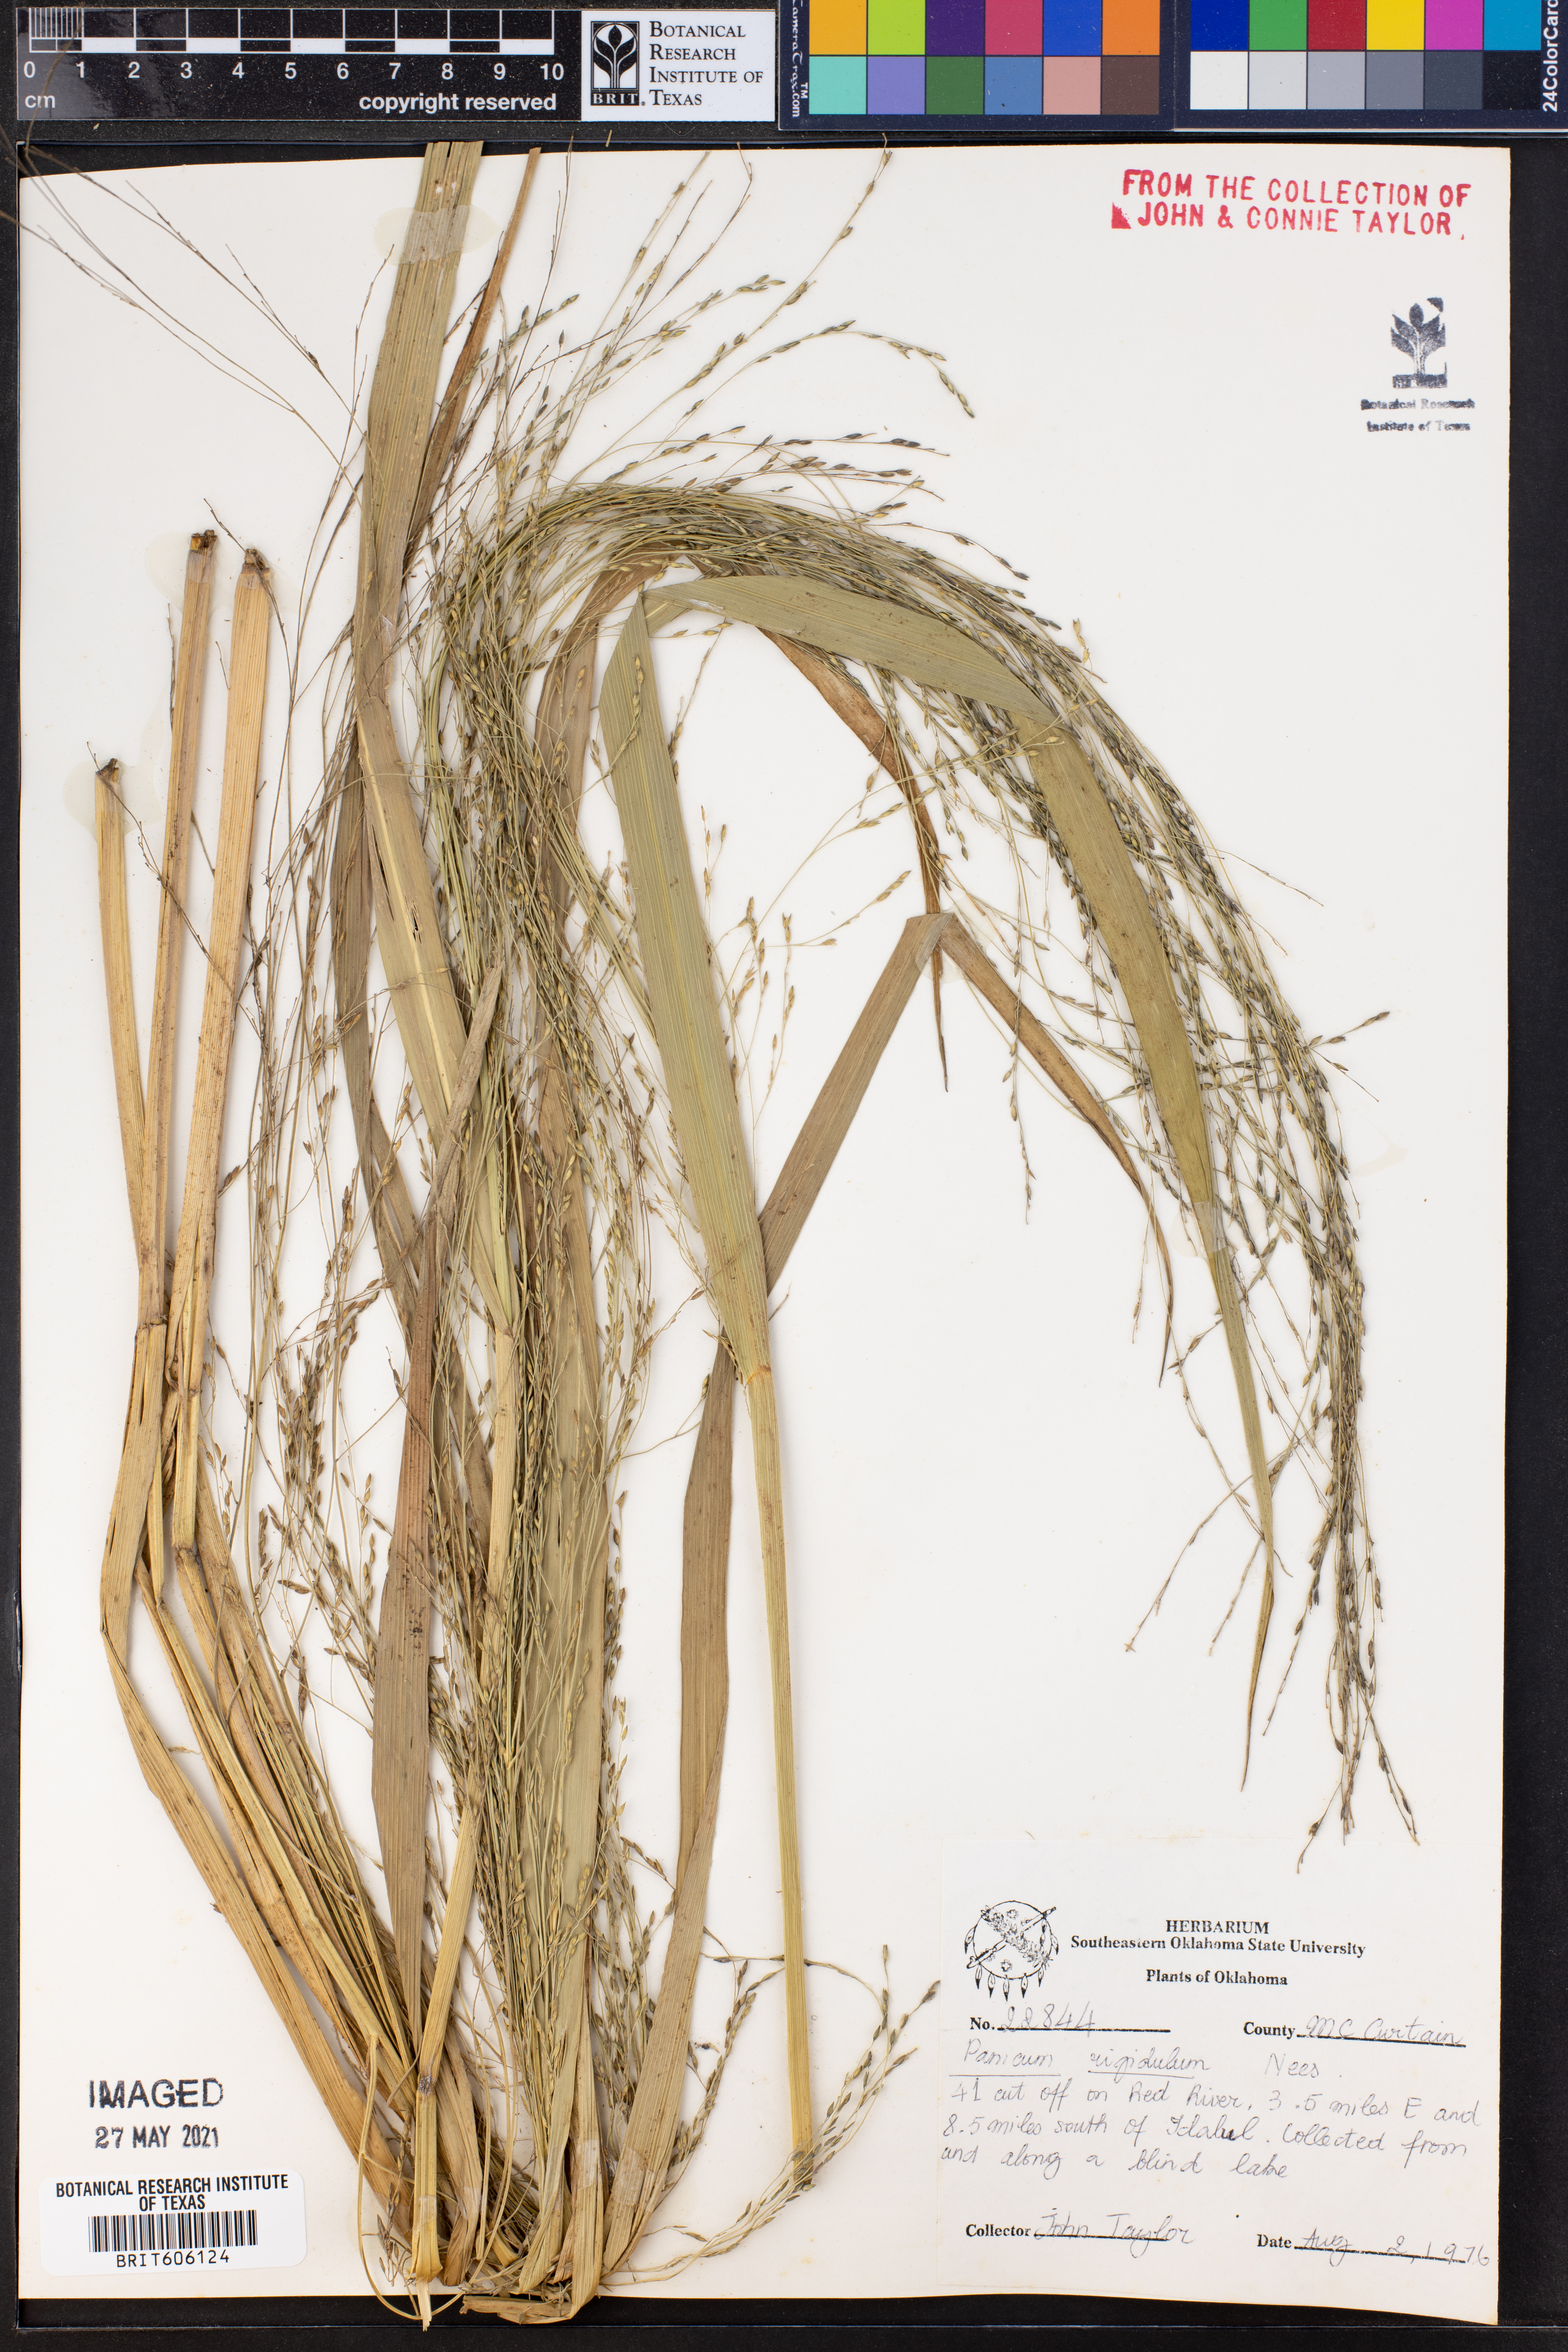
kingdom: Plantae
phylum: Tracheophyta
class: Liliopsida
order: Poales
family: Poaceae
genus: Coleataenia
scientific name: Coleataenia rigidula
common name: Redtop panicgrass
